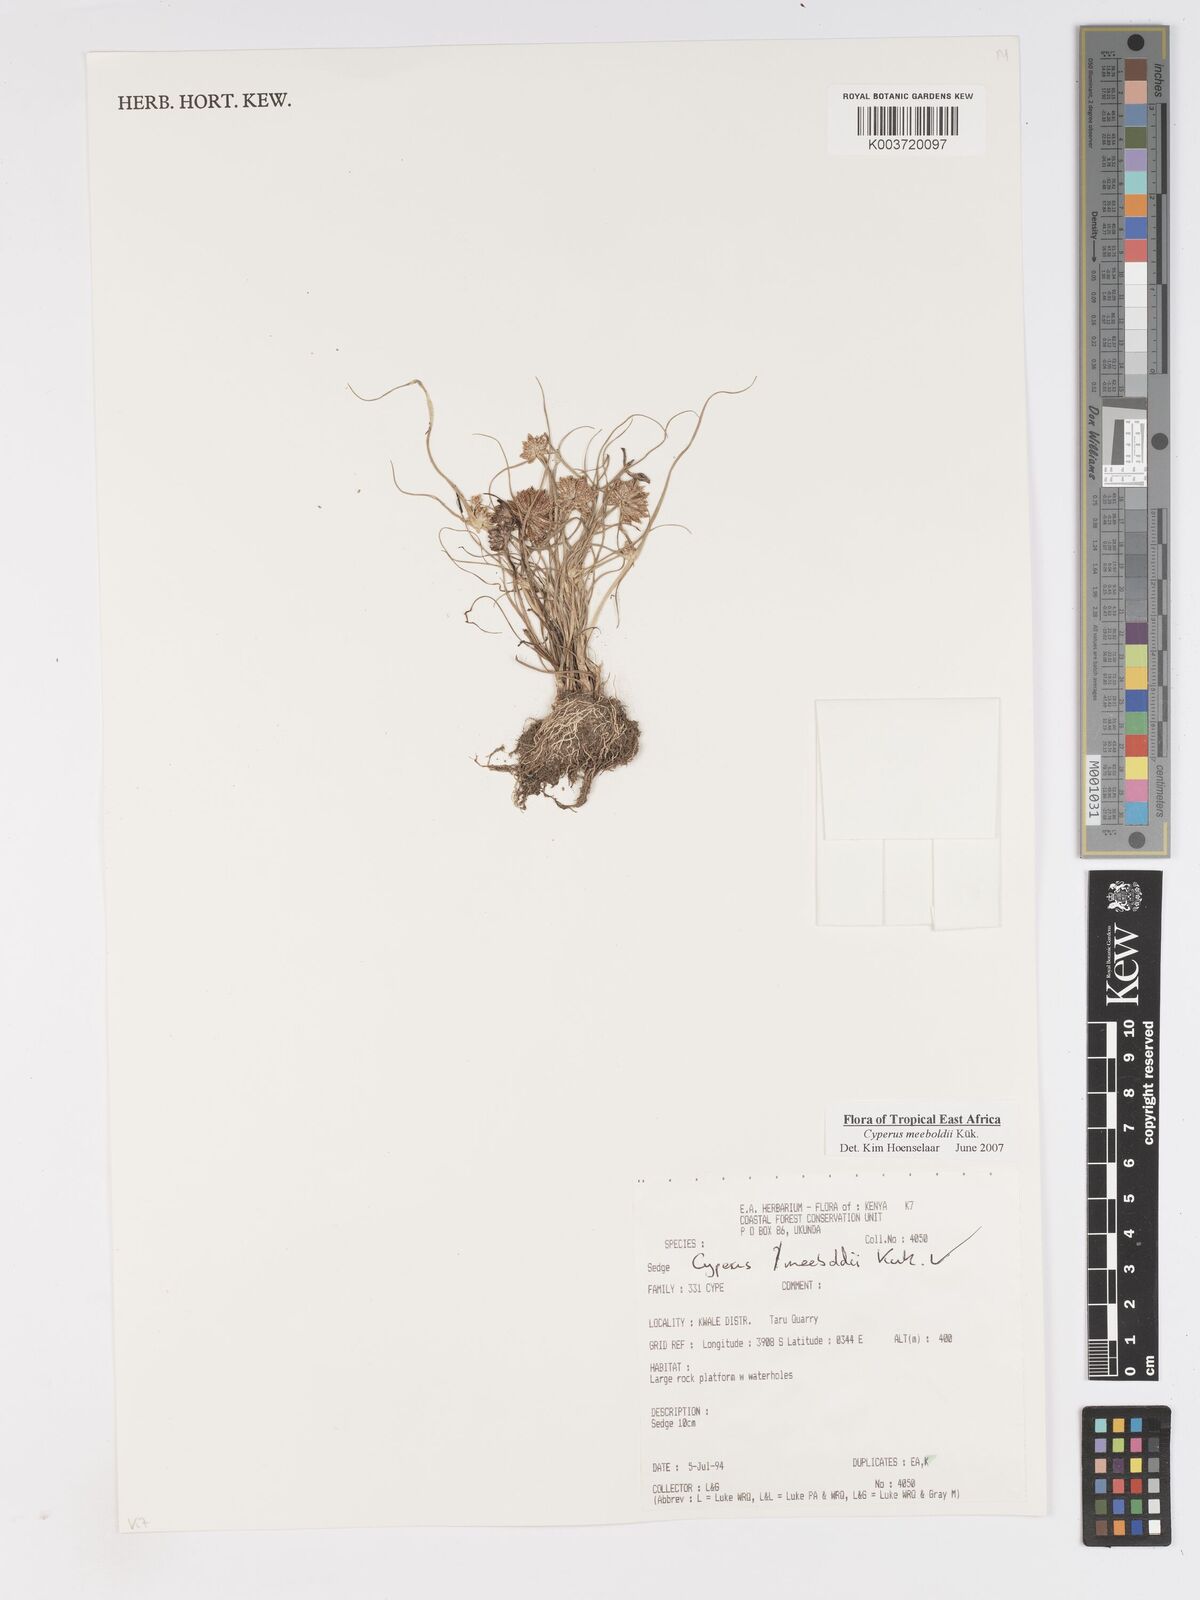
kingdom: Plantae
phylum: Tracheophyta
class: Liliopsida
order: Poales
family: Cyperaceae
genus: Cyperus
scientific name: Cyperus meeboldii
